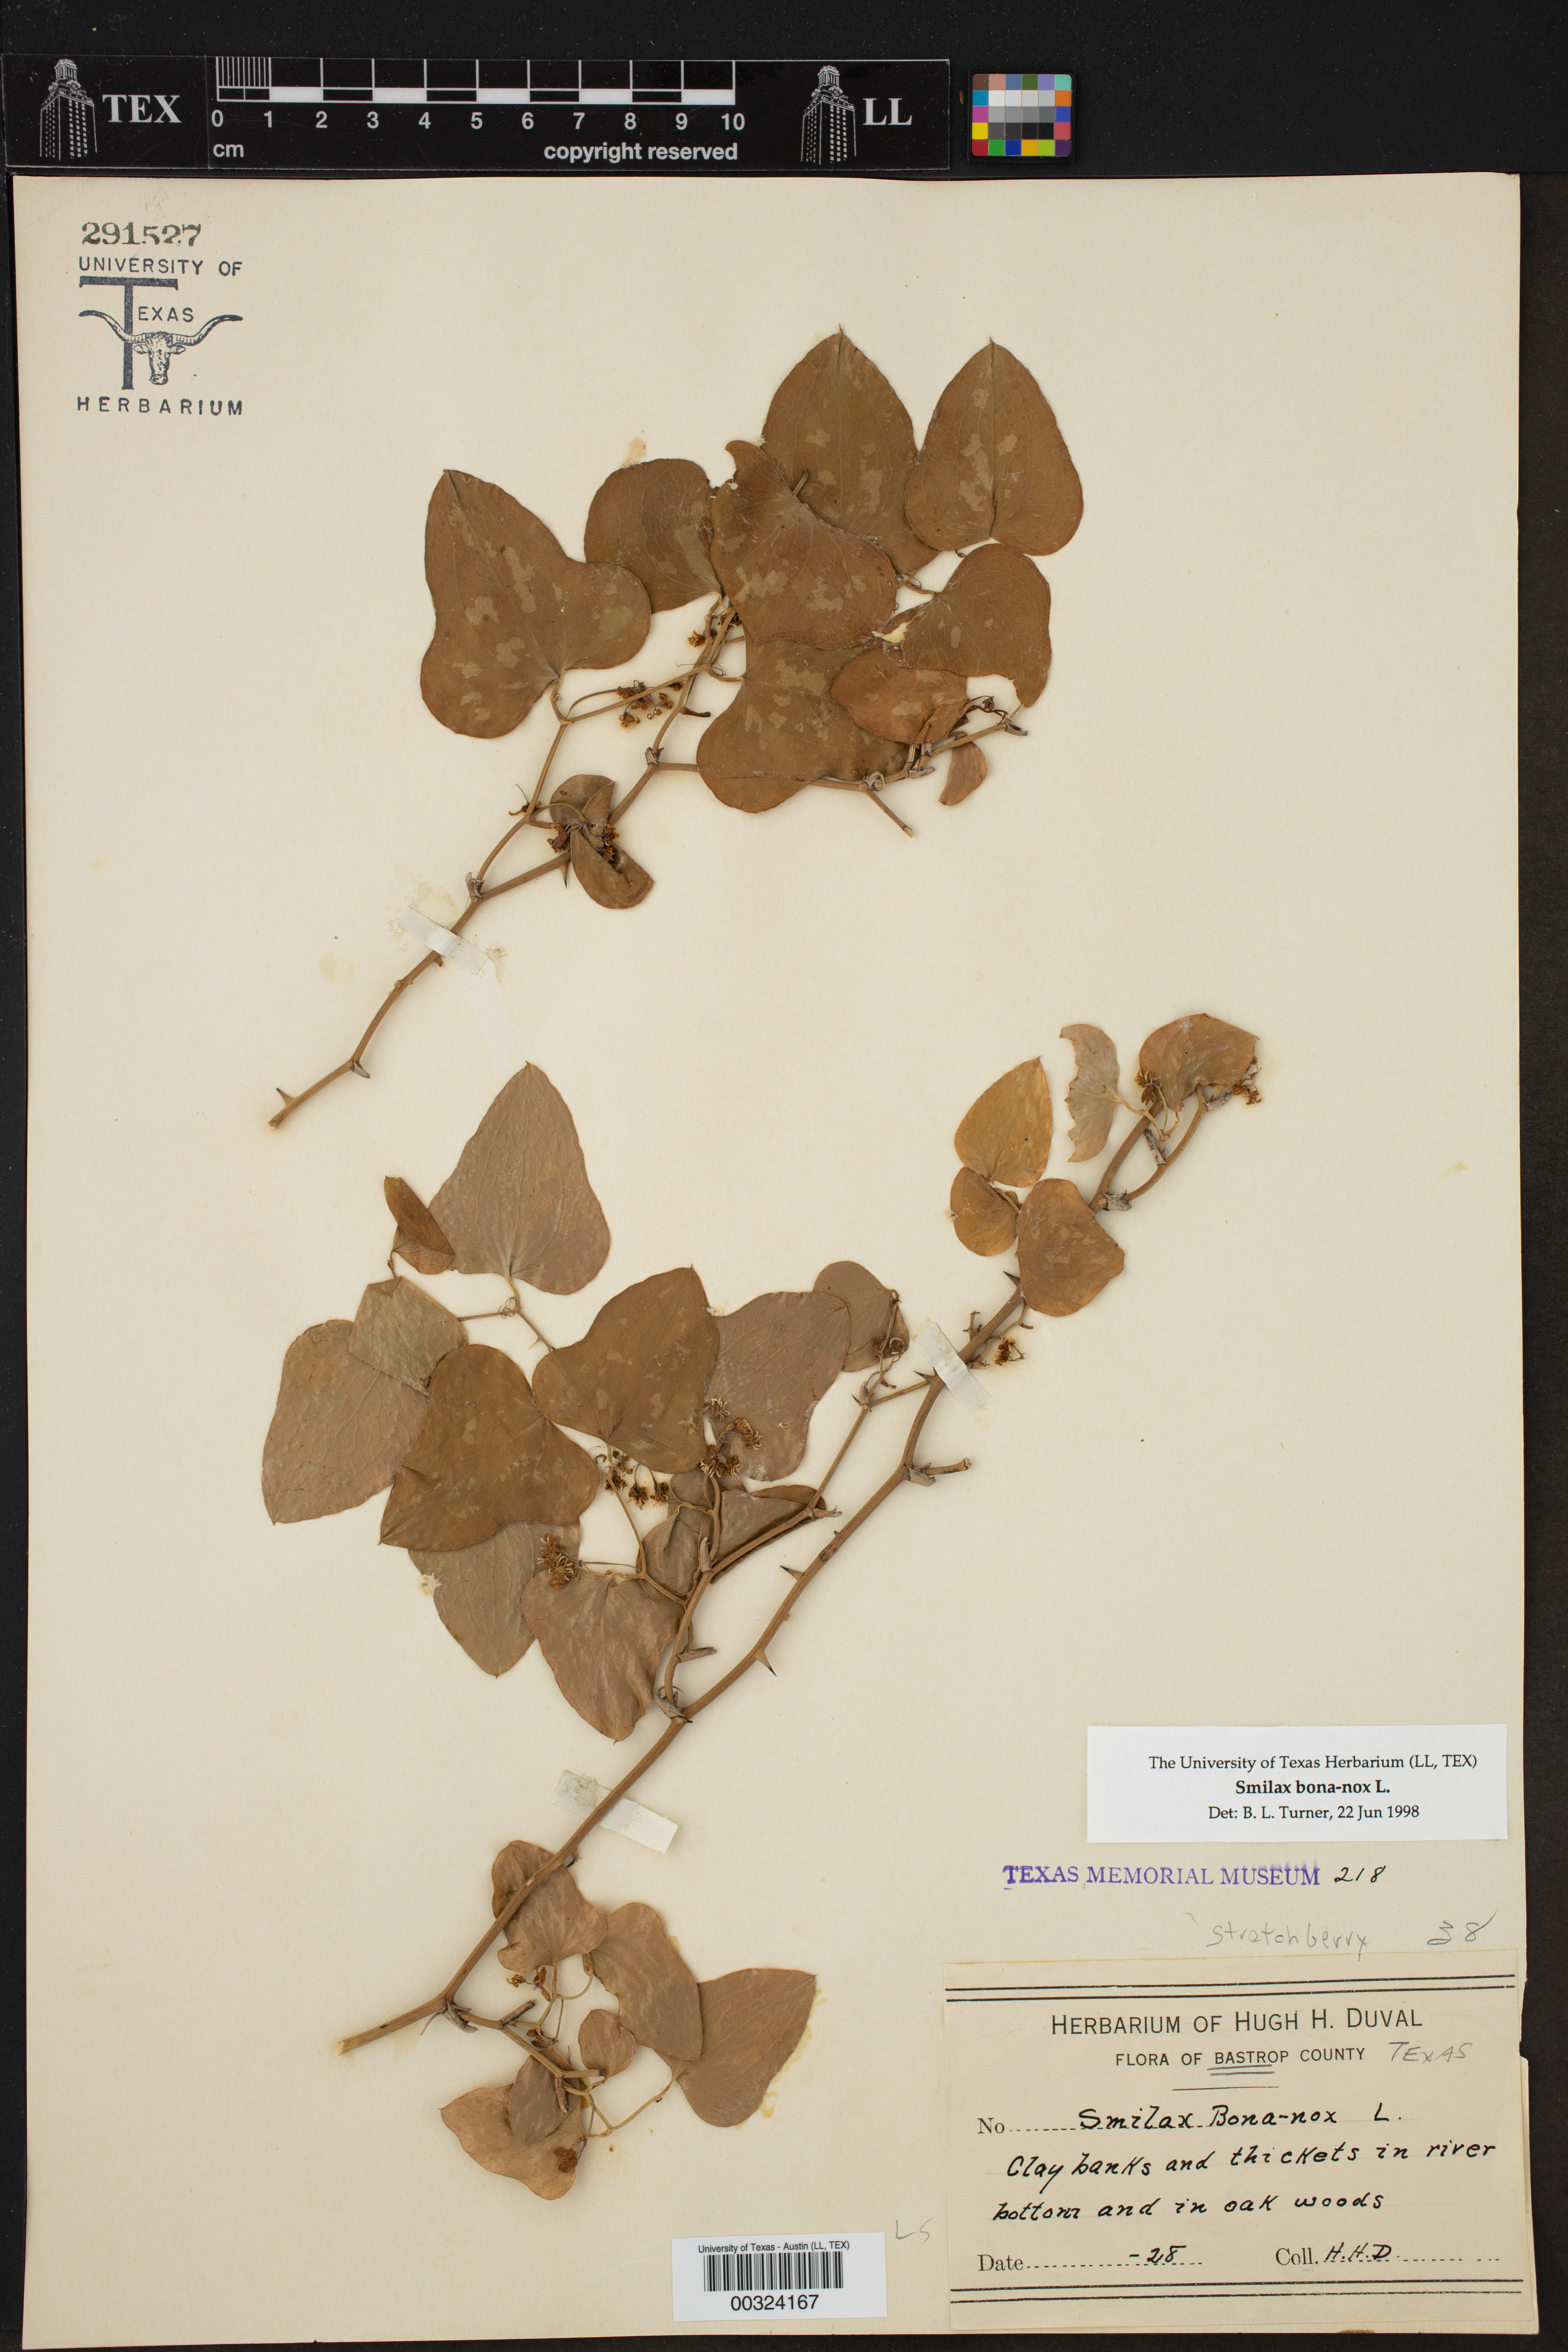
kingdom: Plantae
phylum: Tracheophyta
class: Liliopsida
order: Liliales
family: Smilacaceae
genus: Smilax
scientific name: Smilax bona-nox
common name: Catbrier
